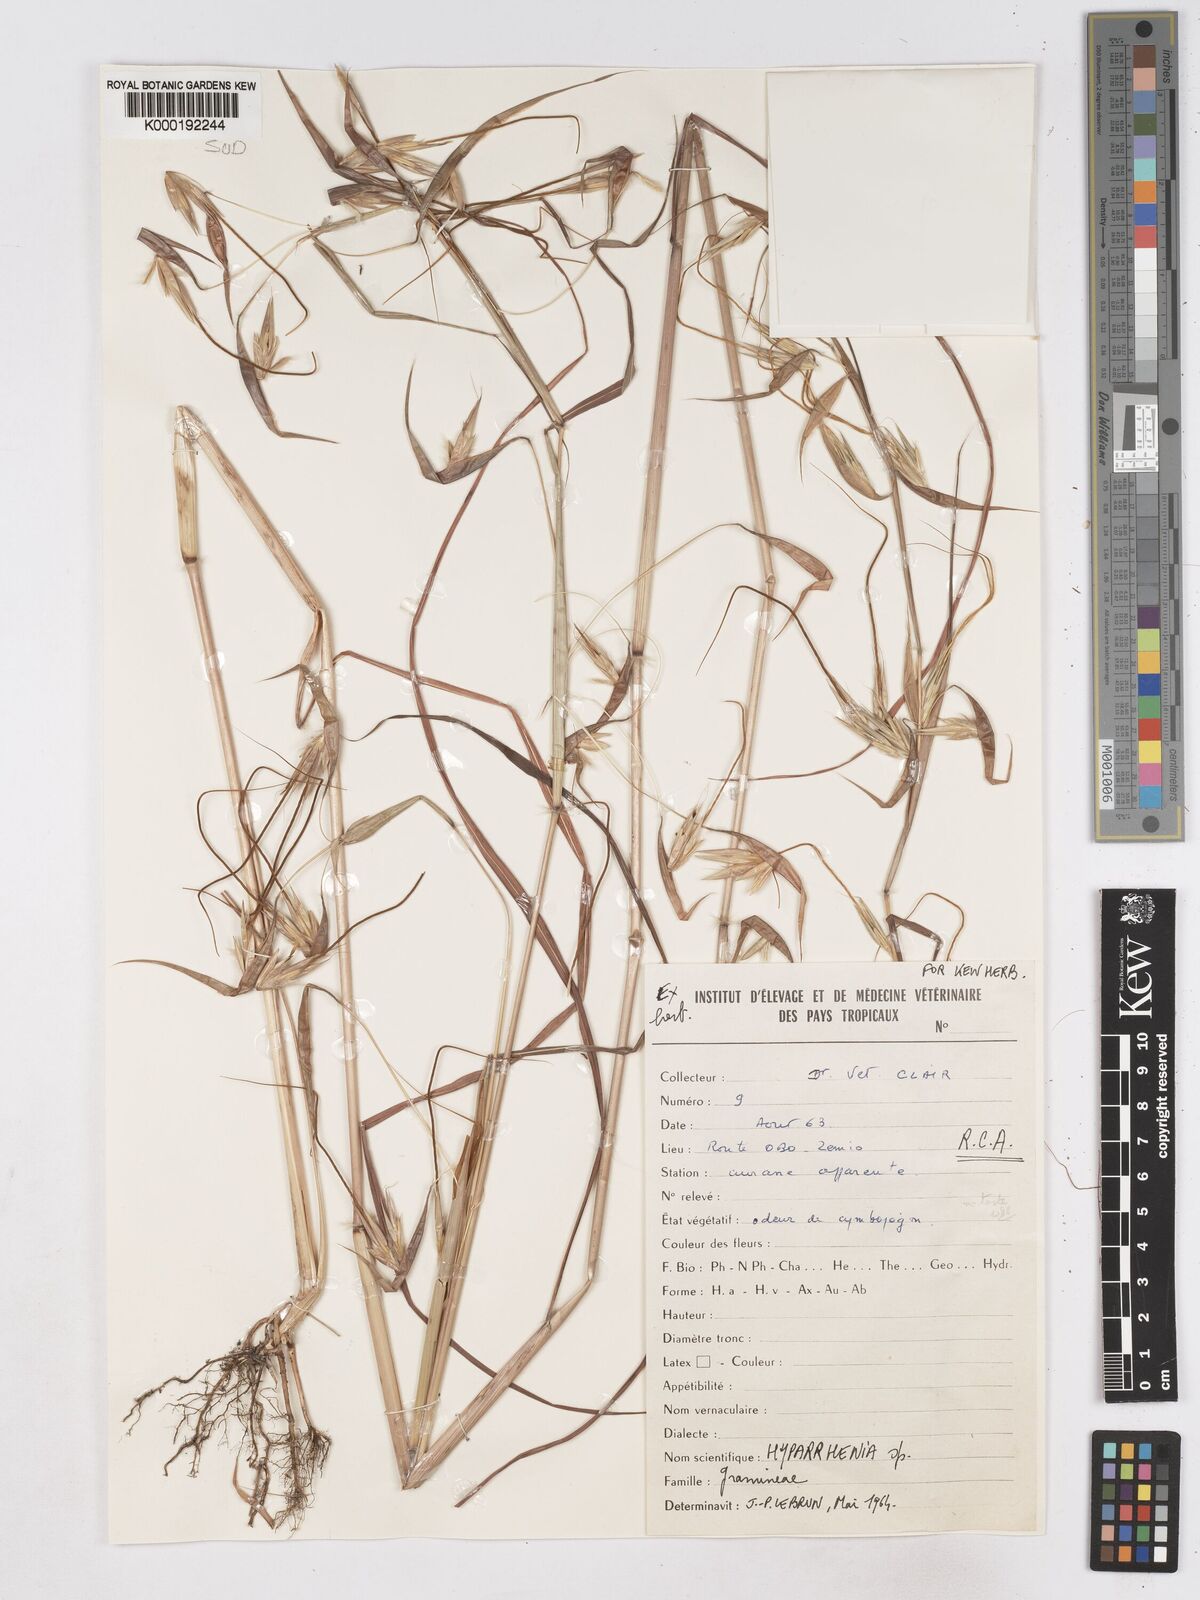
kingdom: Plantae
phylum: Tracheophyta
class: Liliopsida
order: Poales
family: Poaceae
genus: Hyperthelia
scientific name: Hyperthelia cornucopiae
